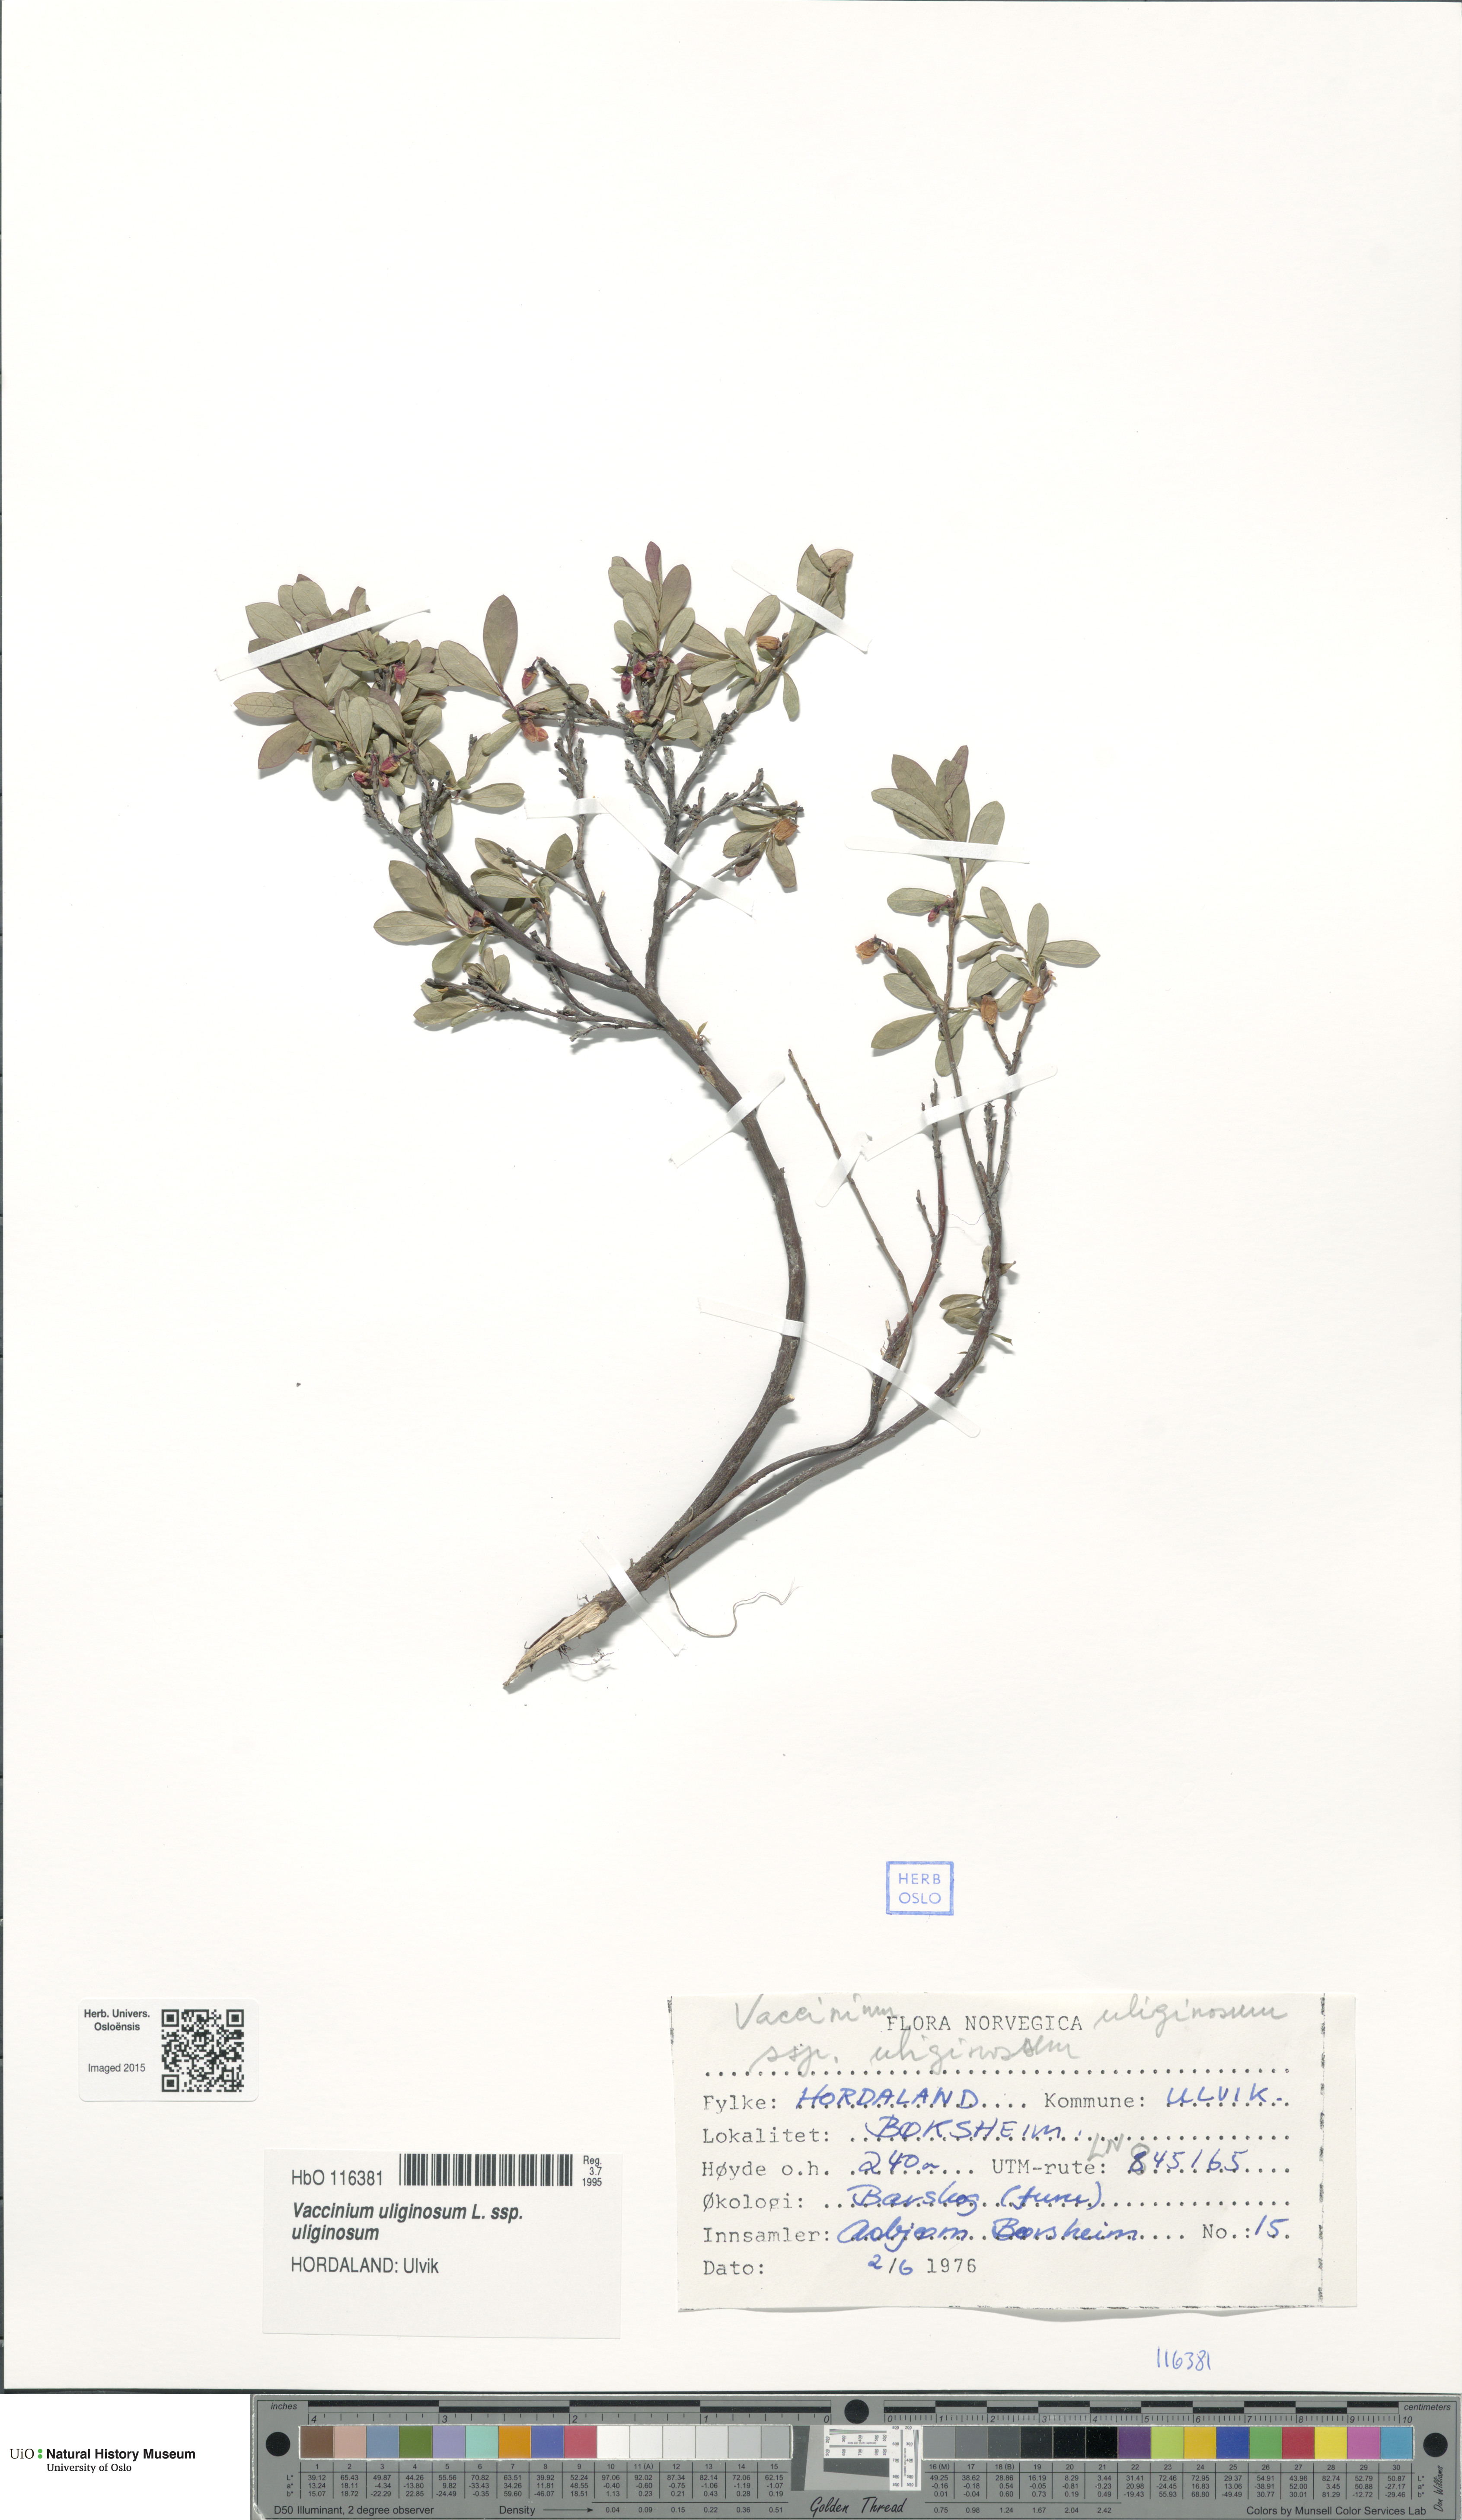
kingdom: Plantae
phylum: Tracheophyta
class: Magnoliopsida
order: Ericales
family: Ericaceae
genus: Vaccinium
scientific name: Vaccinium uliginosum
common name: Bog bilberry
